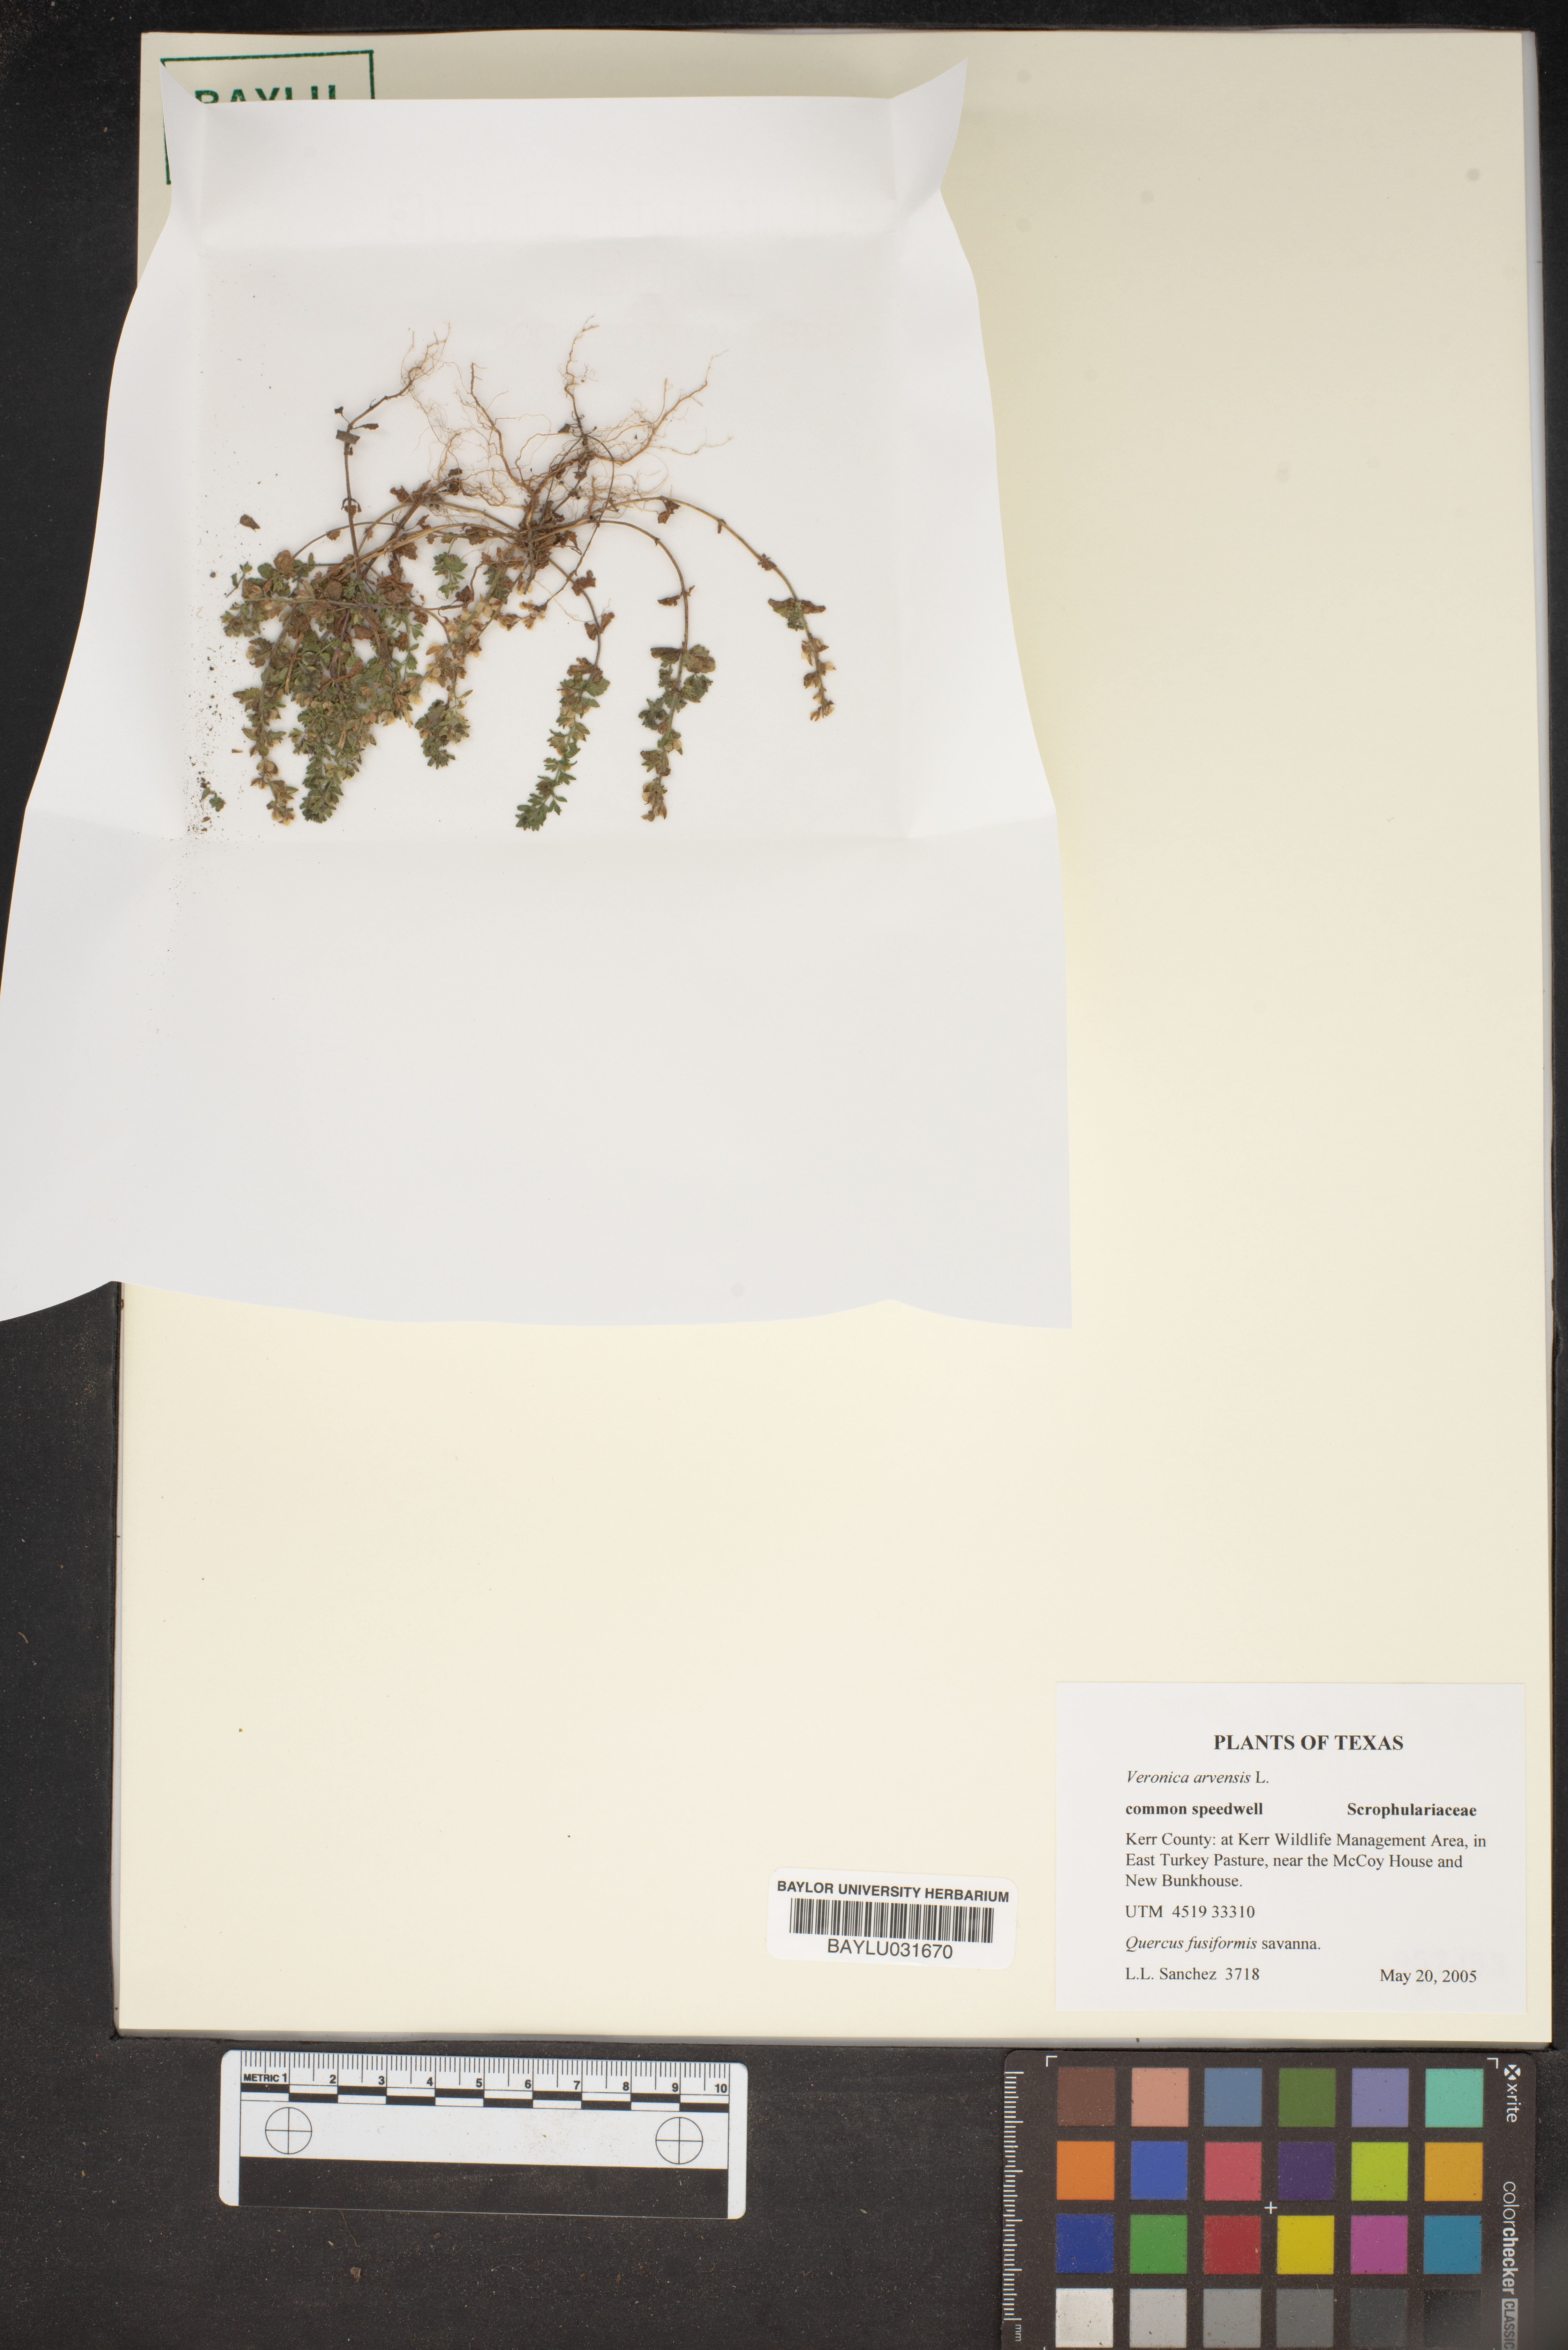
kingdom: Plantae
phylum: Tracheophyta
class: Magnoliopsida
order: Lamiales
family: Plantaginaceae
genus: Veronica
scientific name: Veronica arvensis
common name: Corn speedwell
